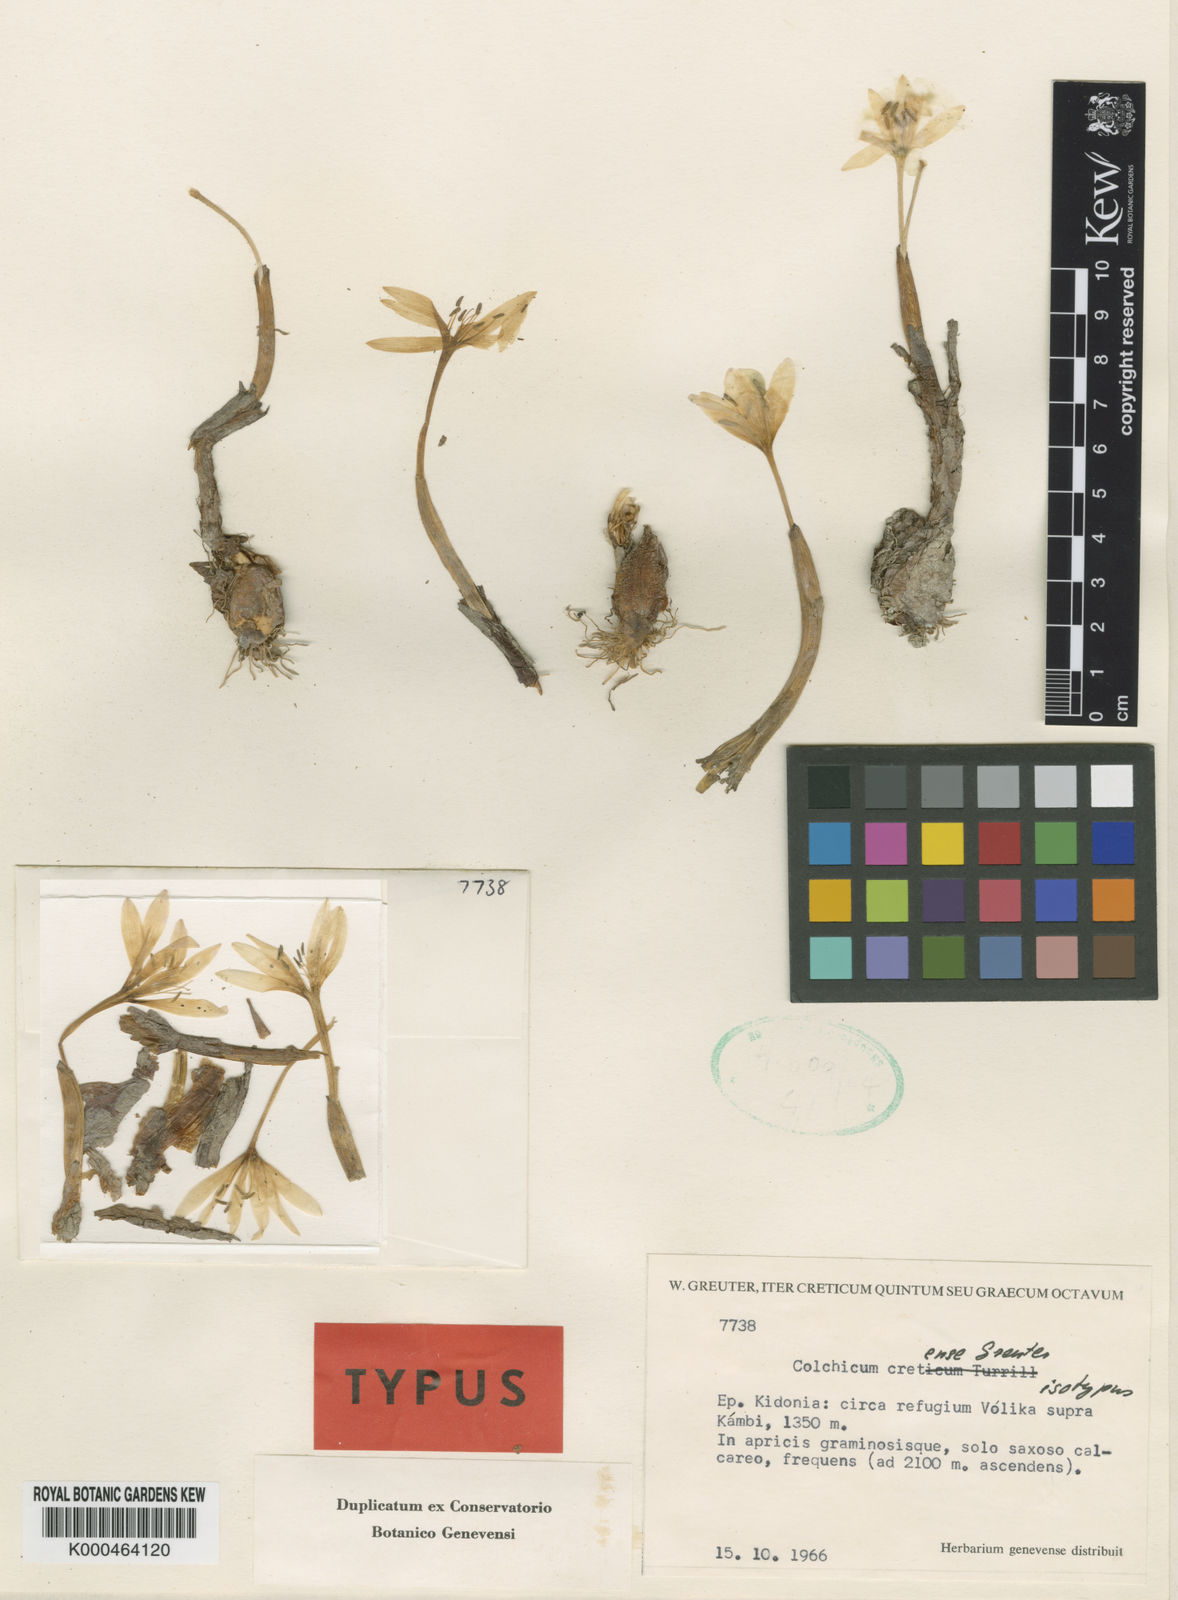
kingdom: Plantae
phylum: Tracheophyta
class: Liliopsida
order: Liliales
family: Colchicaceae
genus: Colchicum
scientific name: Colchicum cretense
